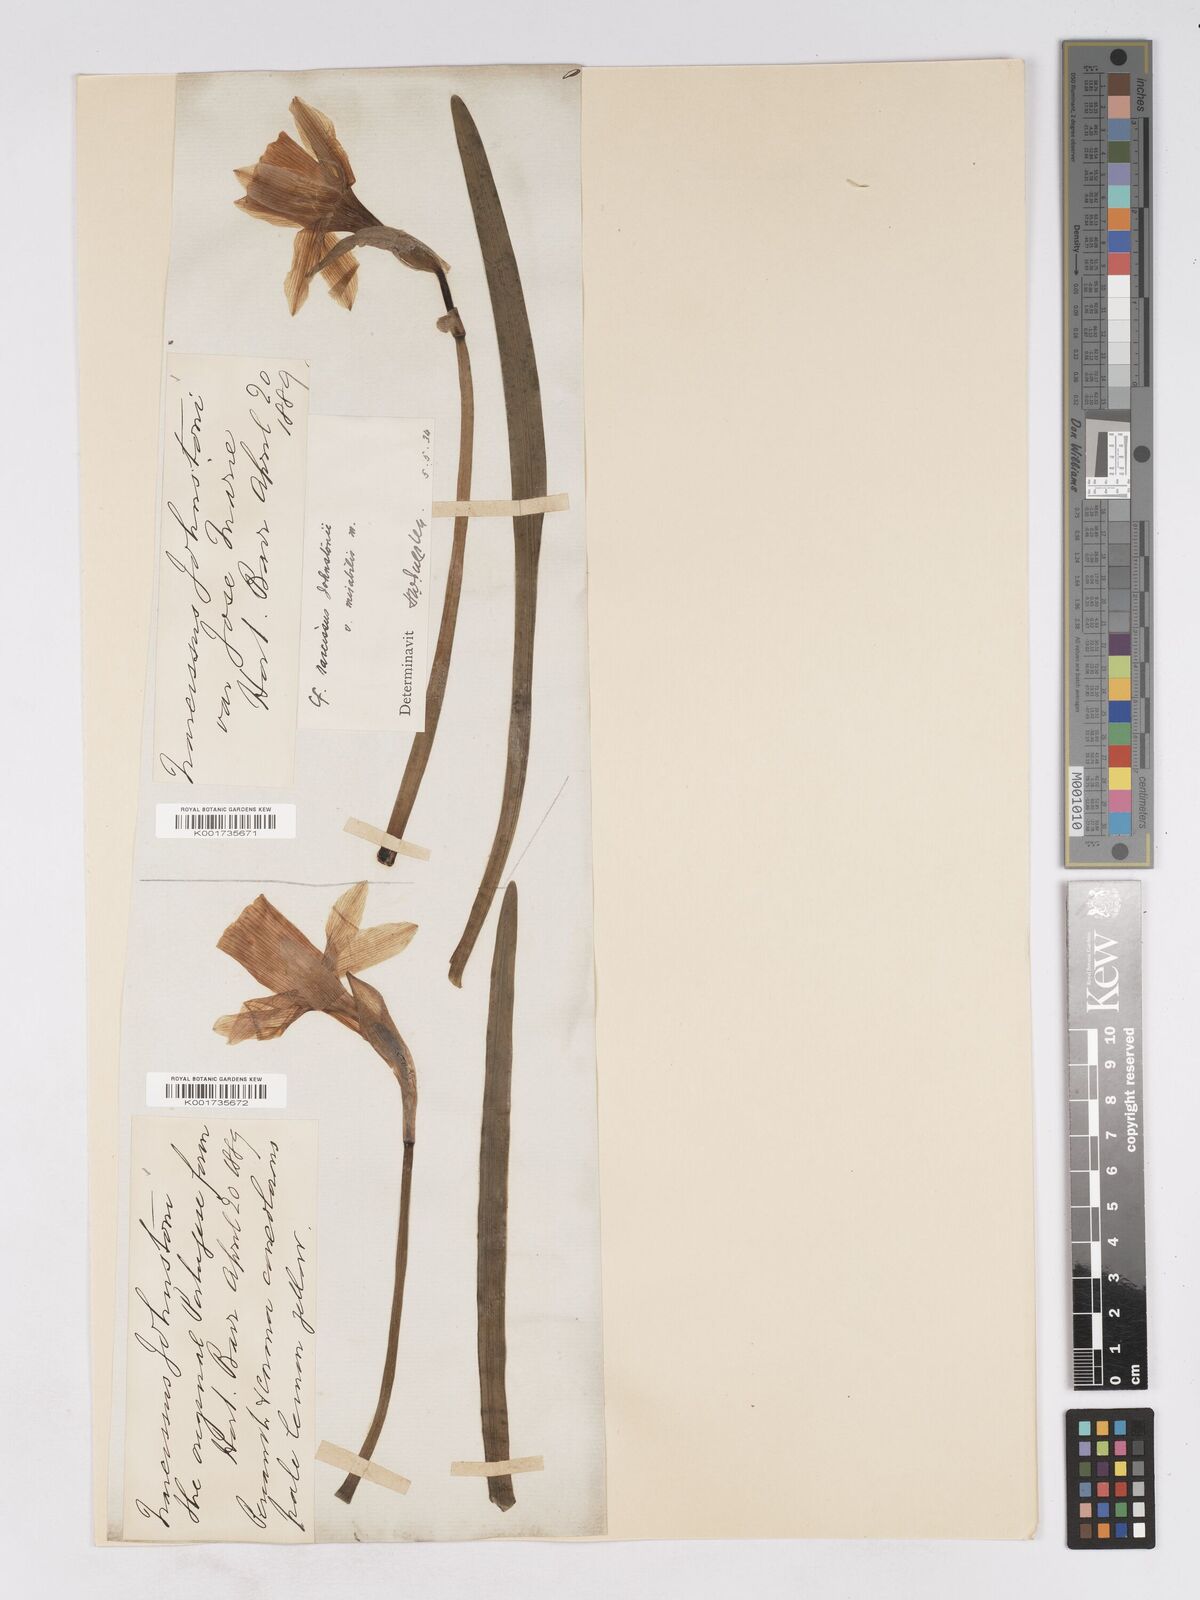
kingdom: Plantae
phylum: Tracheophyta
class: Liliopsida
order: Asparagales
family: Amaryllidaceae
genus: Narcissus
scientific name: Narcissus taitii
